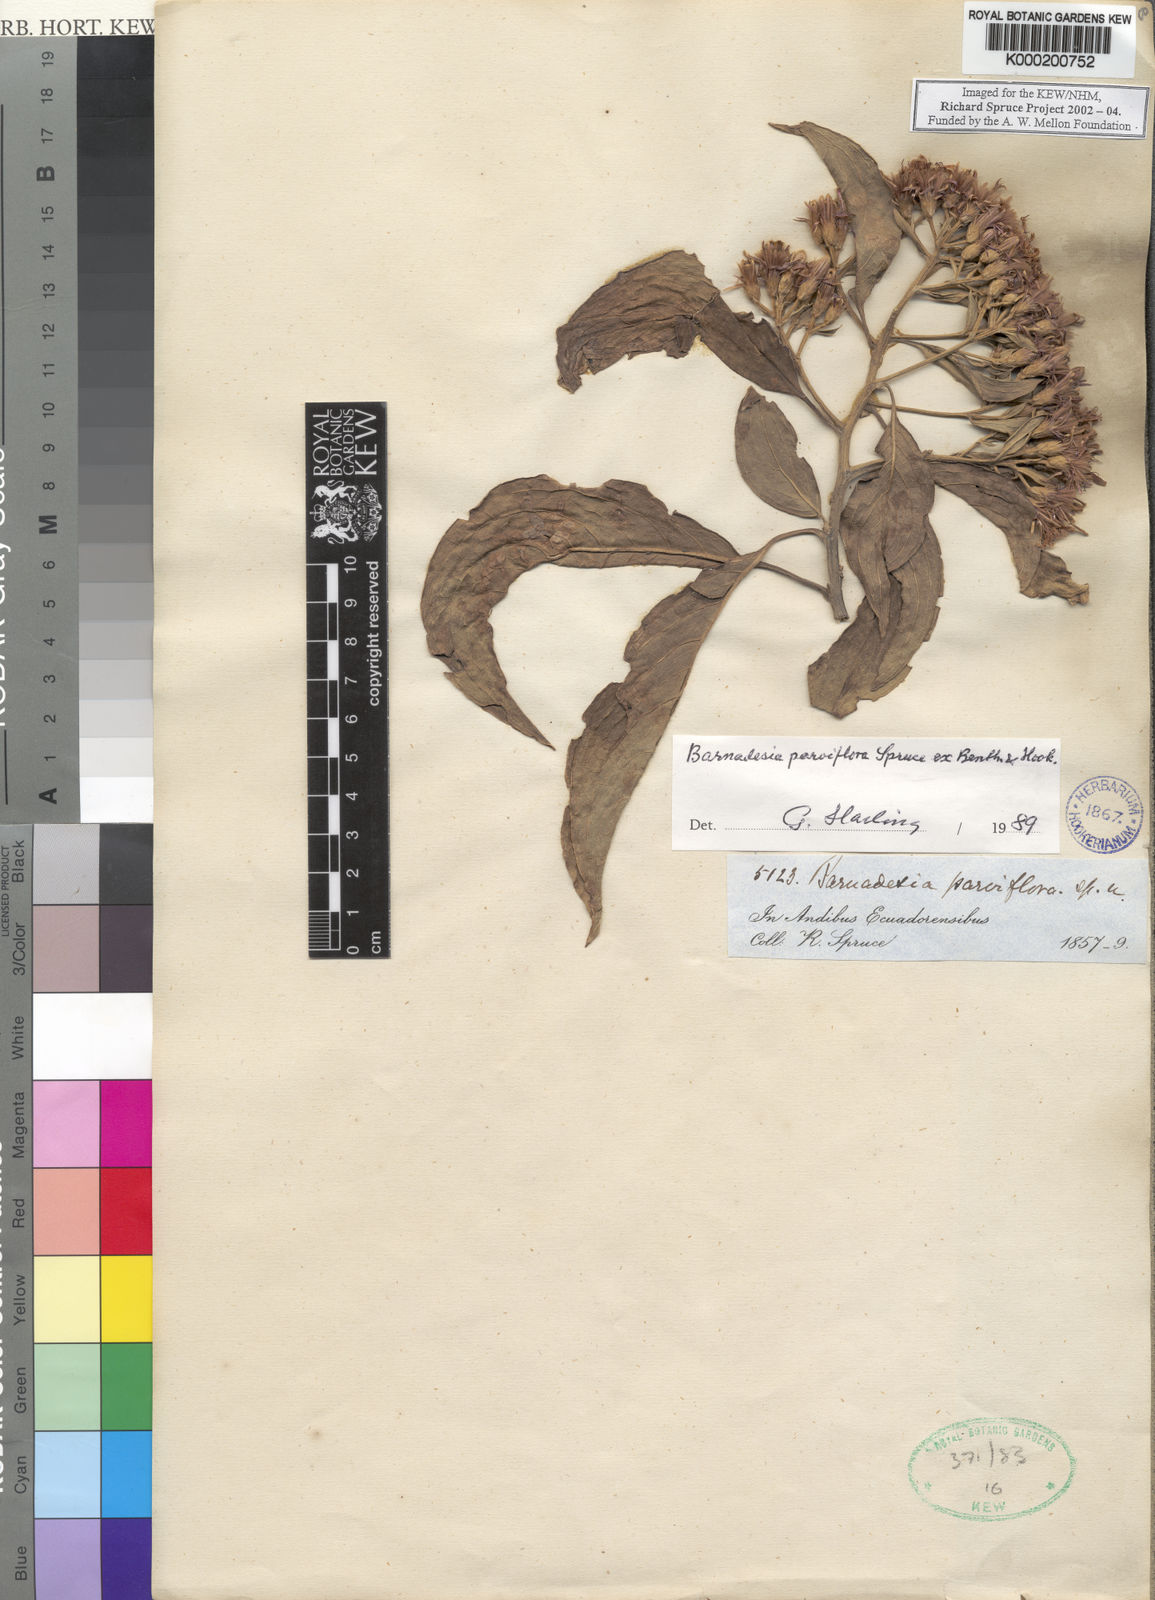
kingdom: Plantae
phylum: Tracheophyta
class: Magnoliopsida
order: Asterales
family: Asteraceae
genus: Barnadesia
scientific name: Barnadesia parviflora
